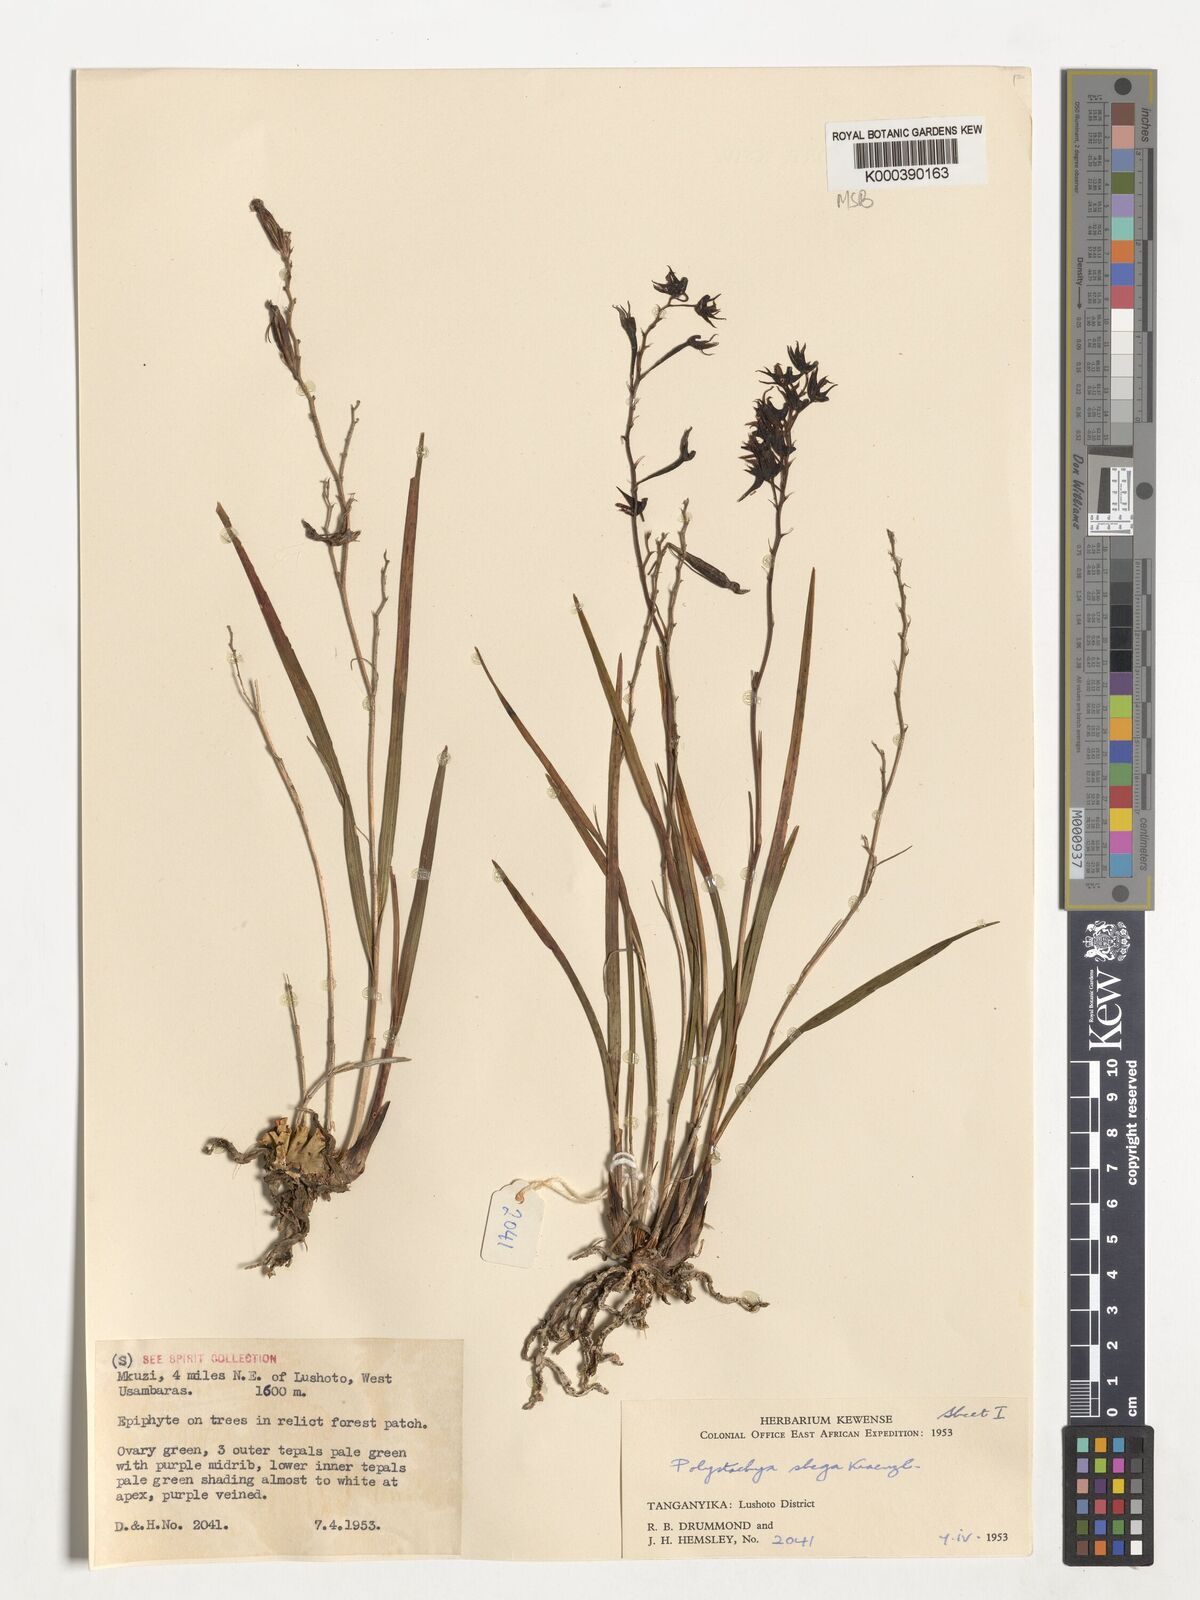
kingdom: Plantae
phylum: Tracheophyta
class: Liliopsida
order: Asparagales
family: Orchidaceae
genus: Polystachya
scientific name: Polystachya shega
